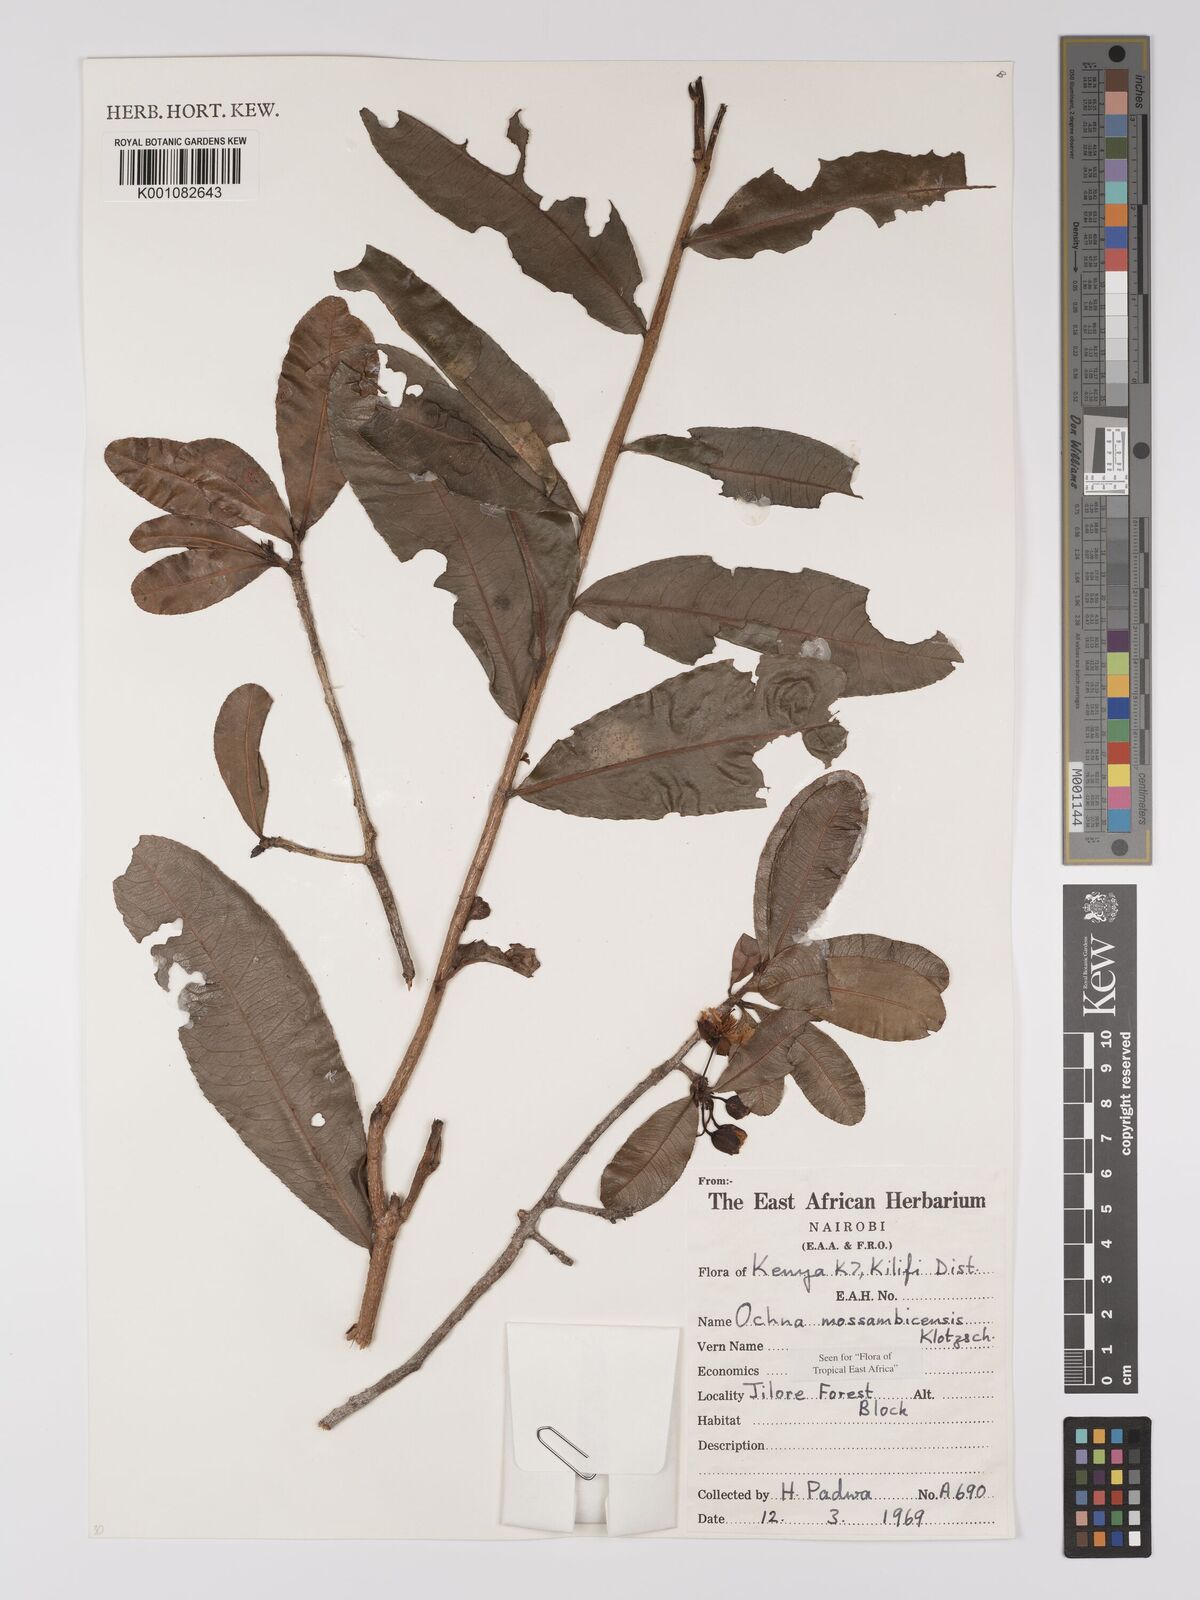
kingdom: Plantae
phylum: Tracheophyta
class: Magnoliopsida
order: Malpighiales
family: Ochnaceae
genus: Ochna
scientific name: Ochna atropurpurea
